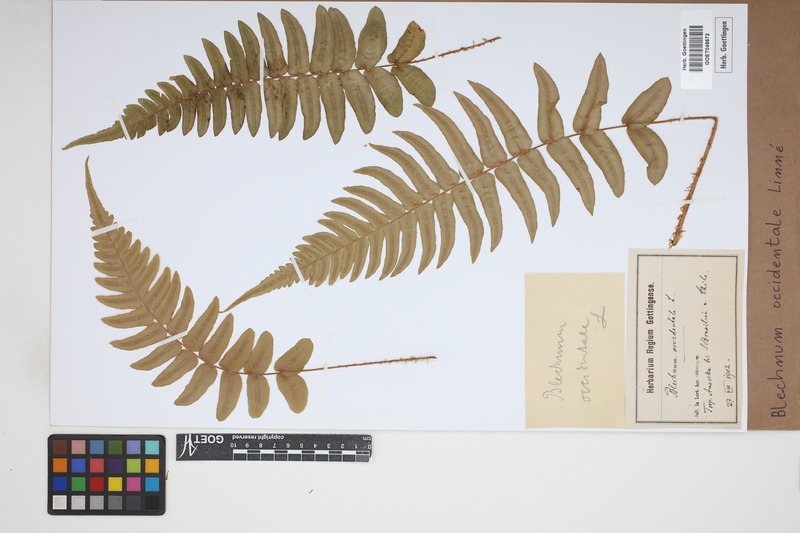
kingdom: Plantae
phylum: Tracheophyta
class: Polypodiopsida
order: Polypodiales
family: Blechnaceae
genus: Blechnum
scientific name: Blechnum occidentale
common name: Hammock fern
